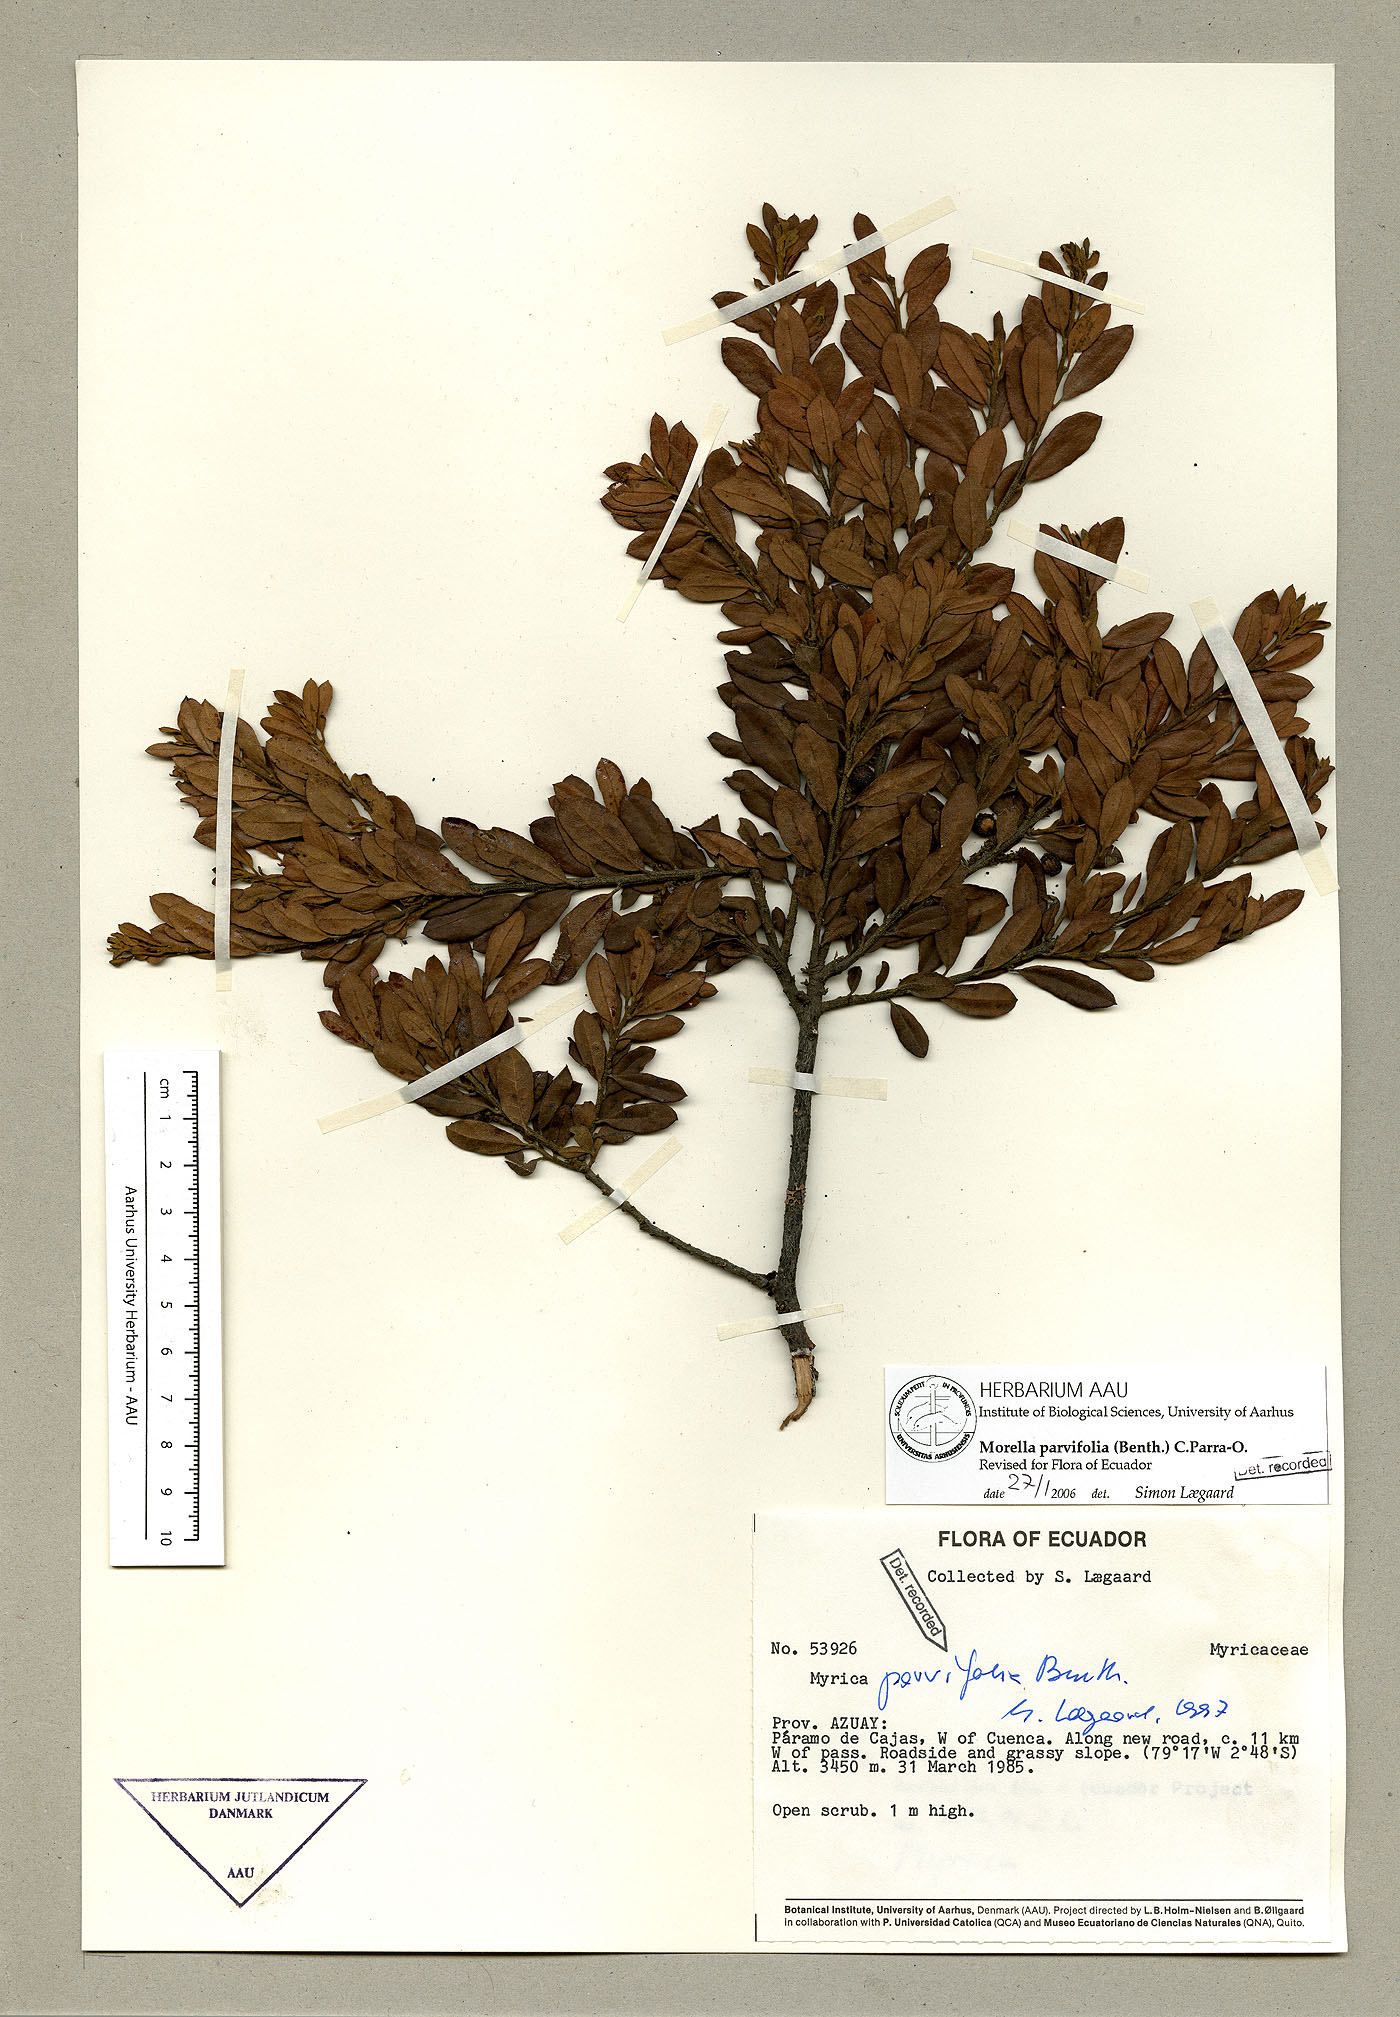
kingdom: Plantae
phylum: Tracheophyta
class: Magnoliopsida
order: Fagales
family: Myricaceae
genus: Morella
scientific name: Morella parvifolia
